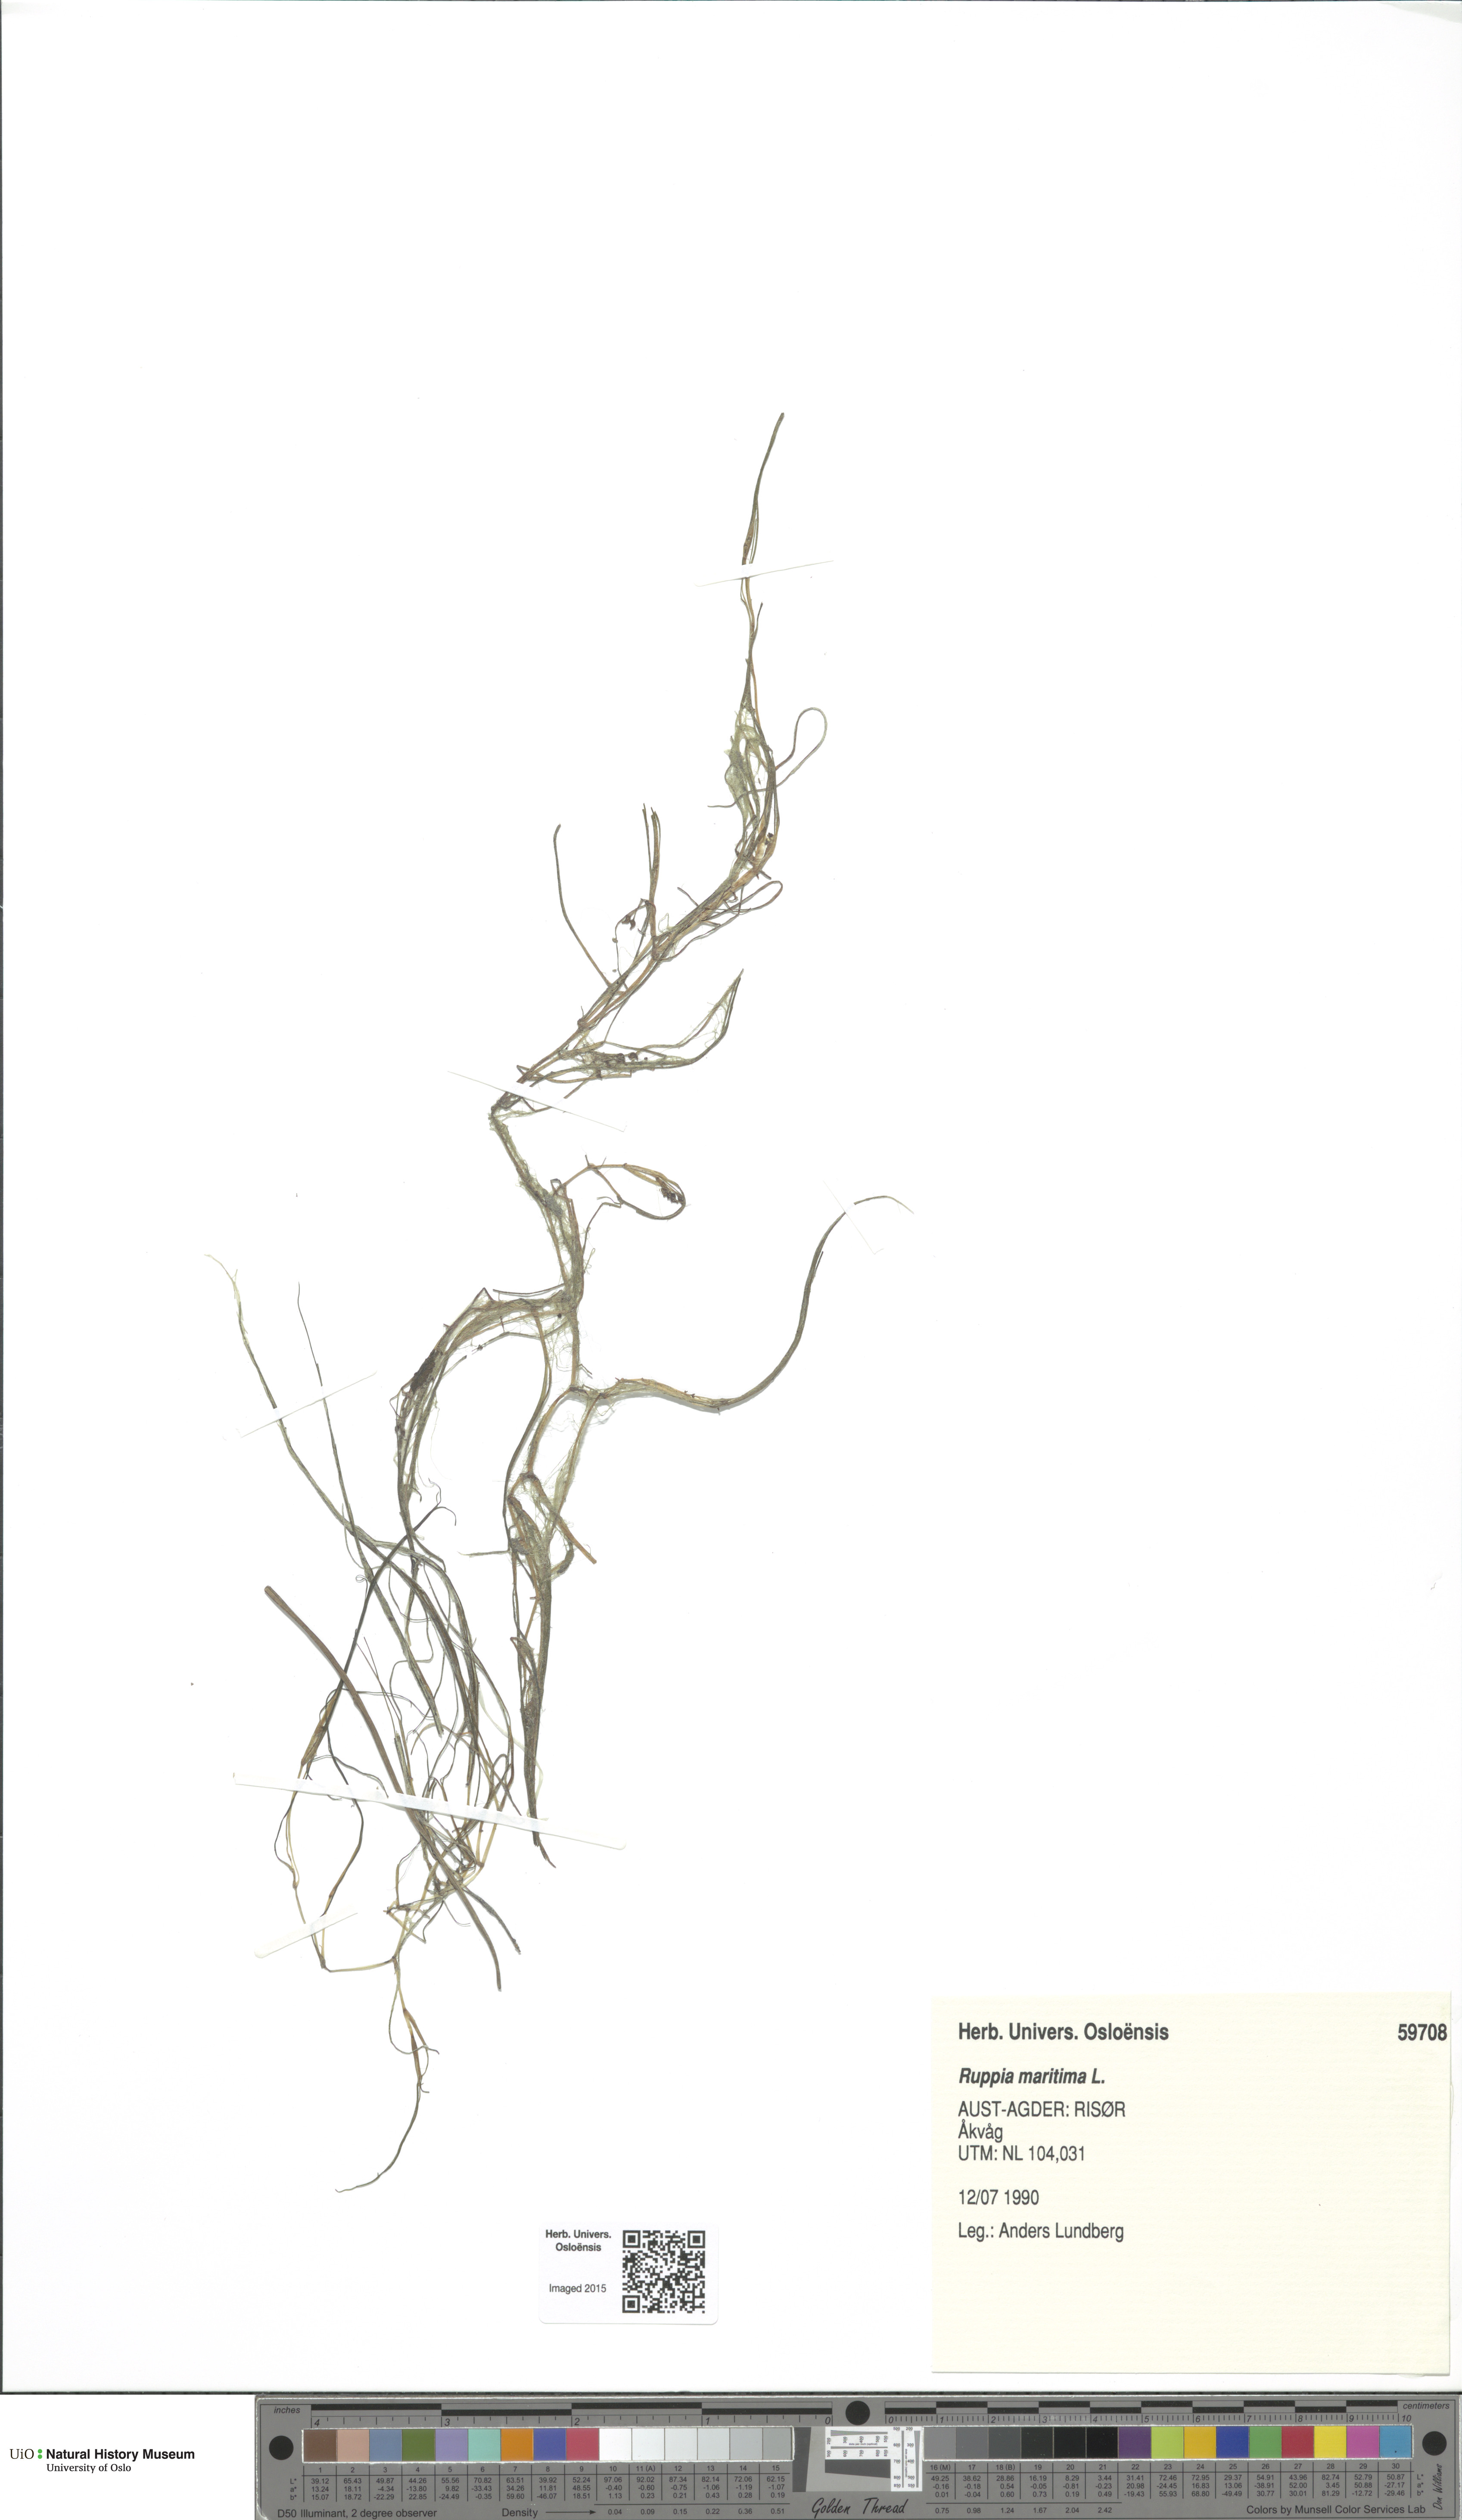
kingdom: Plantae
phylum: Tracheophyta
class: Liliopsida
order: Alismatales
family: Ruppiaceae
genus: Ruppia
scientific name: Ruppia maritima
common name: Beaked tasselweed
